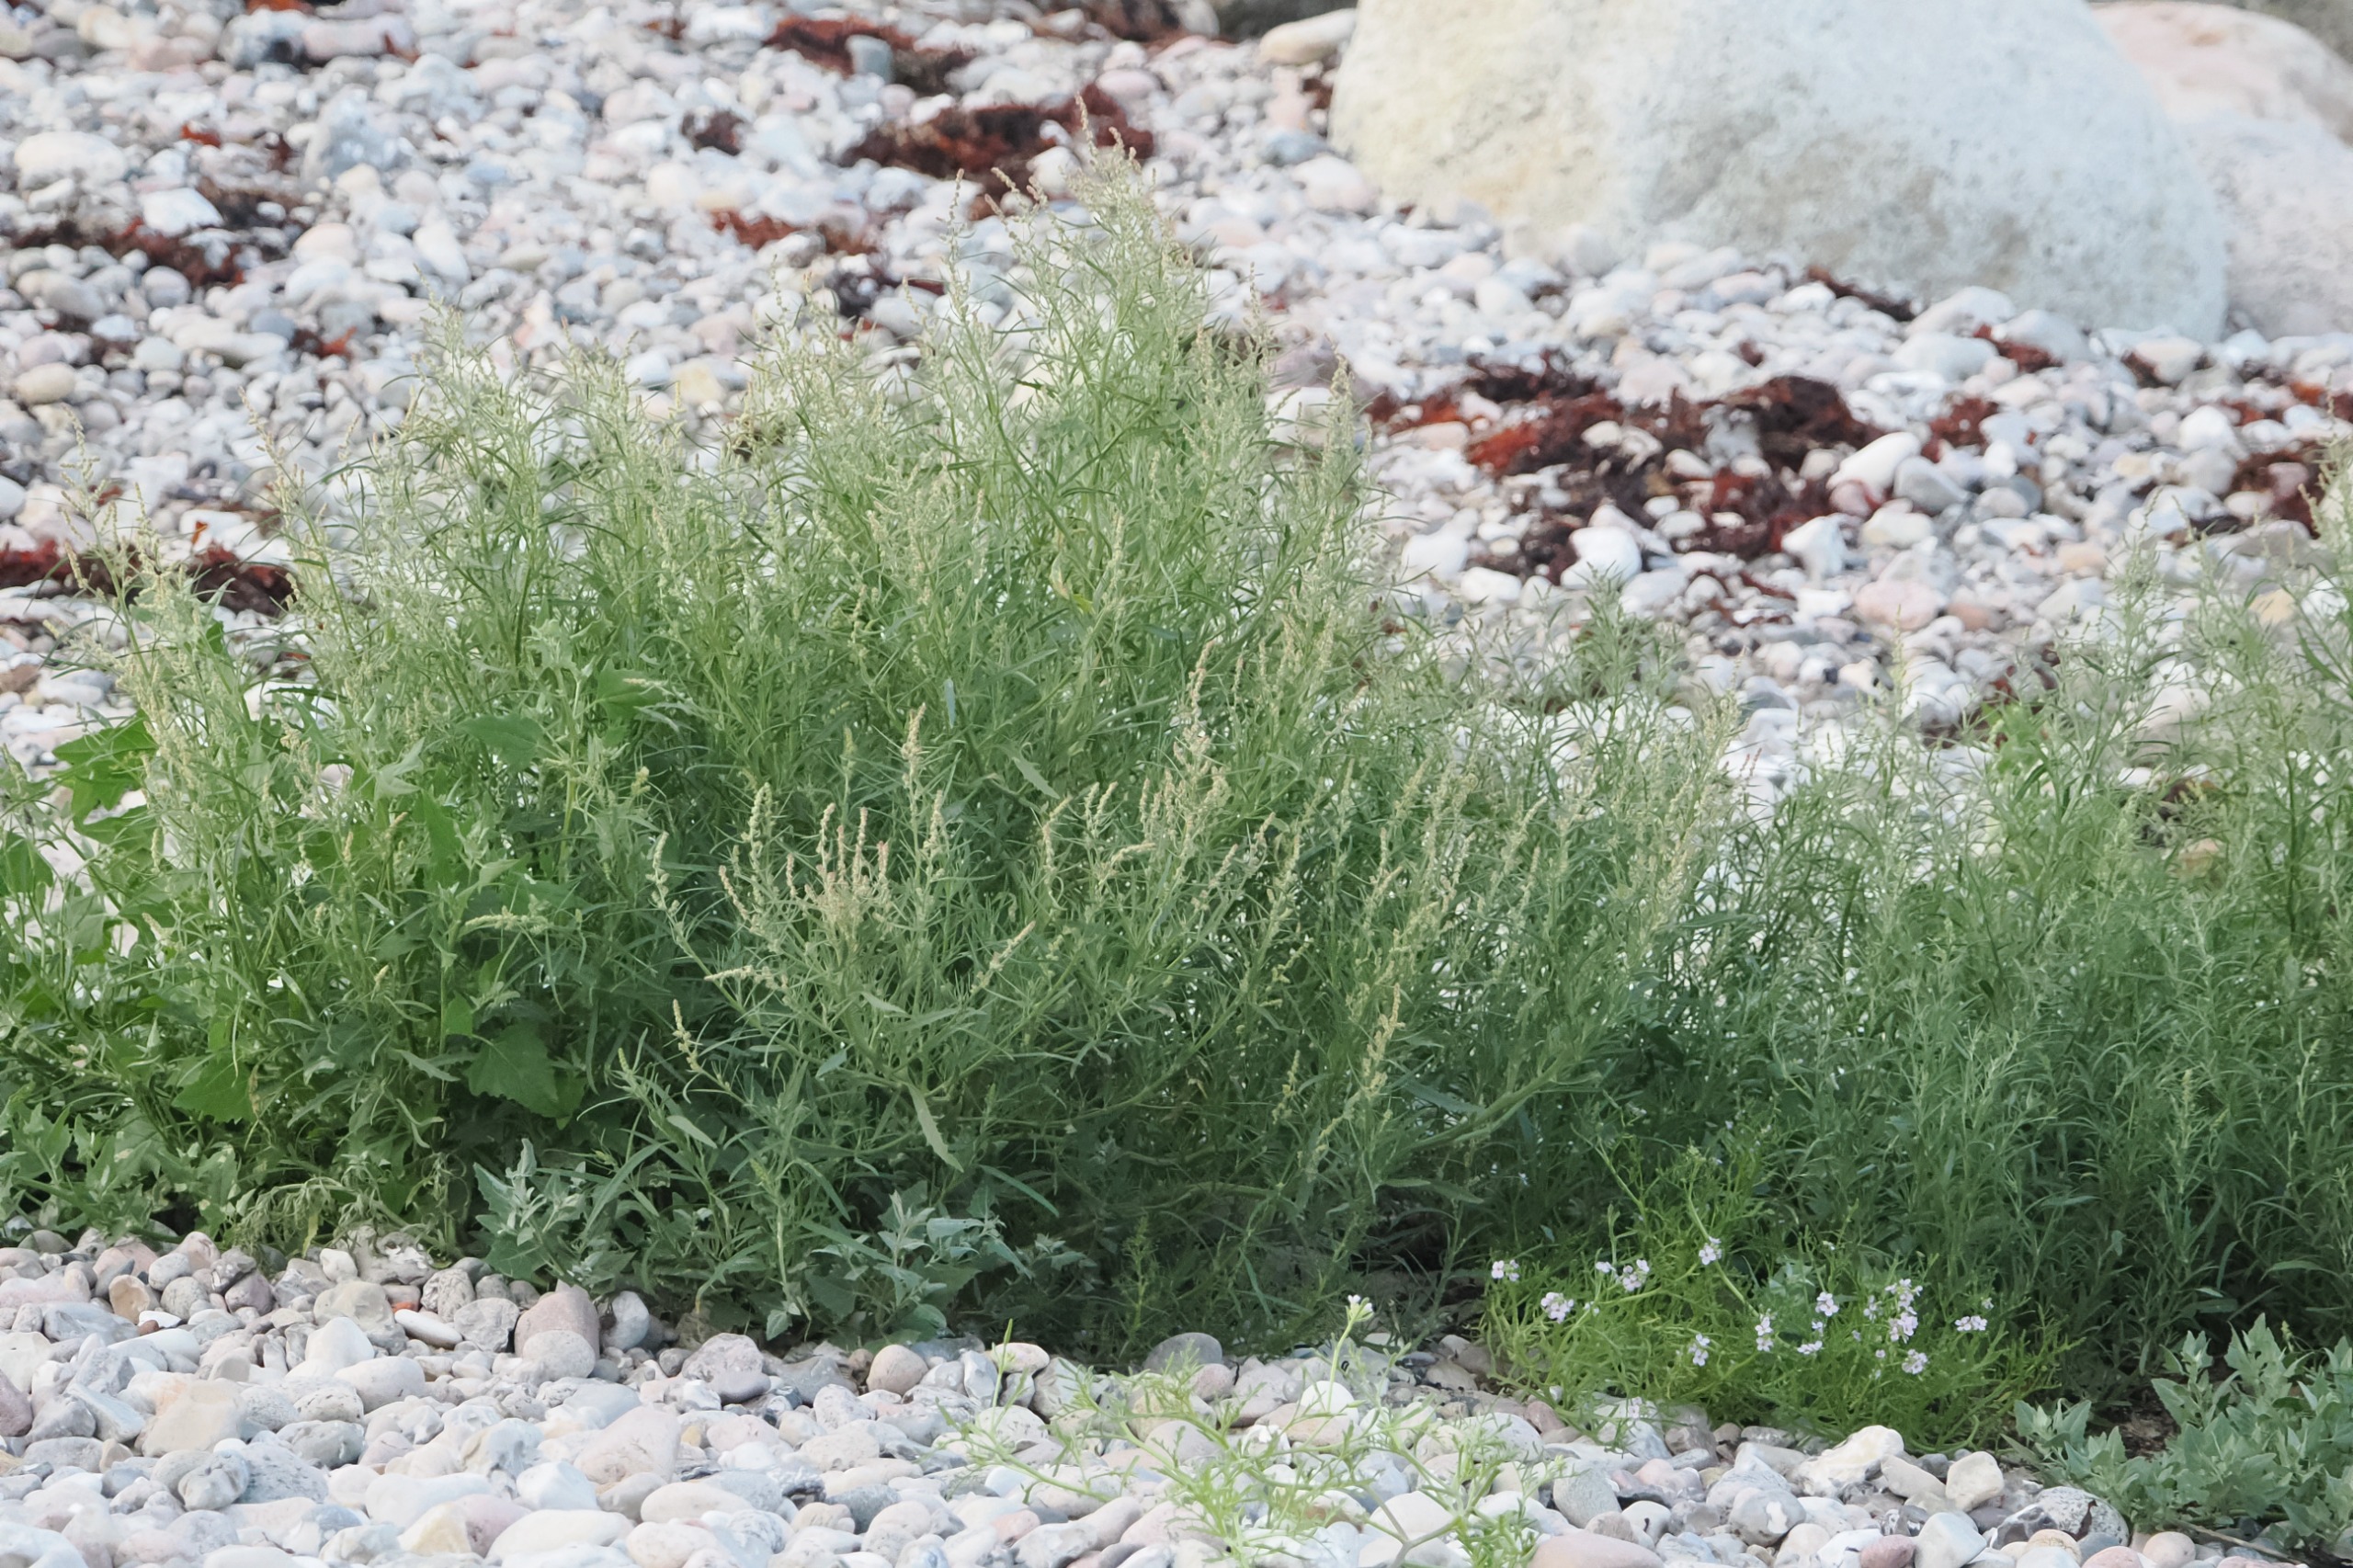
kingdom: Plantae
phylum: Tracheophyta
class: Magnoliopsida
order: Caryophyllales
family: Amaranthaceae
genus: Atriplex
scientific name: Atriplex littoralis
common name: Strand-mælde
